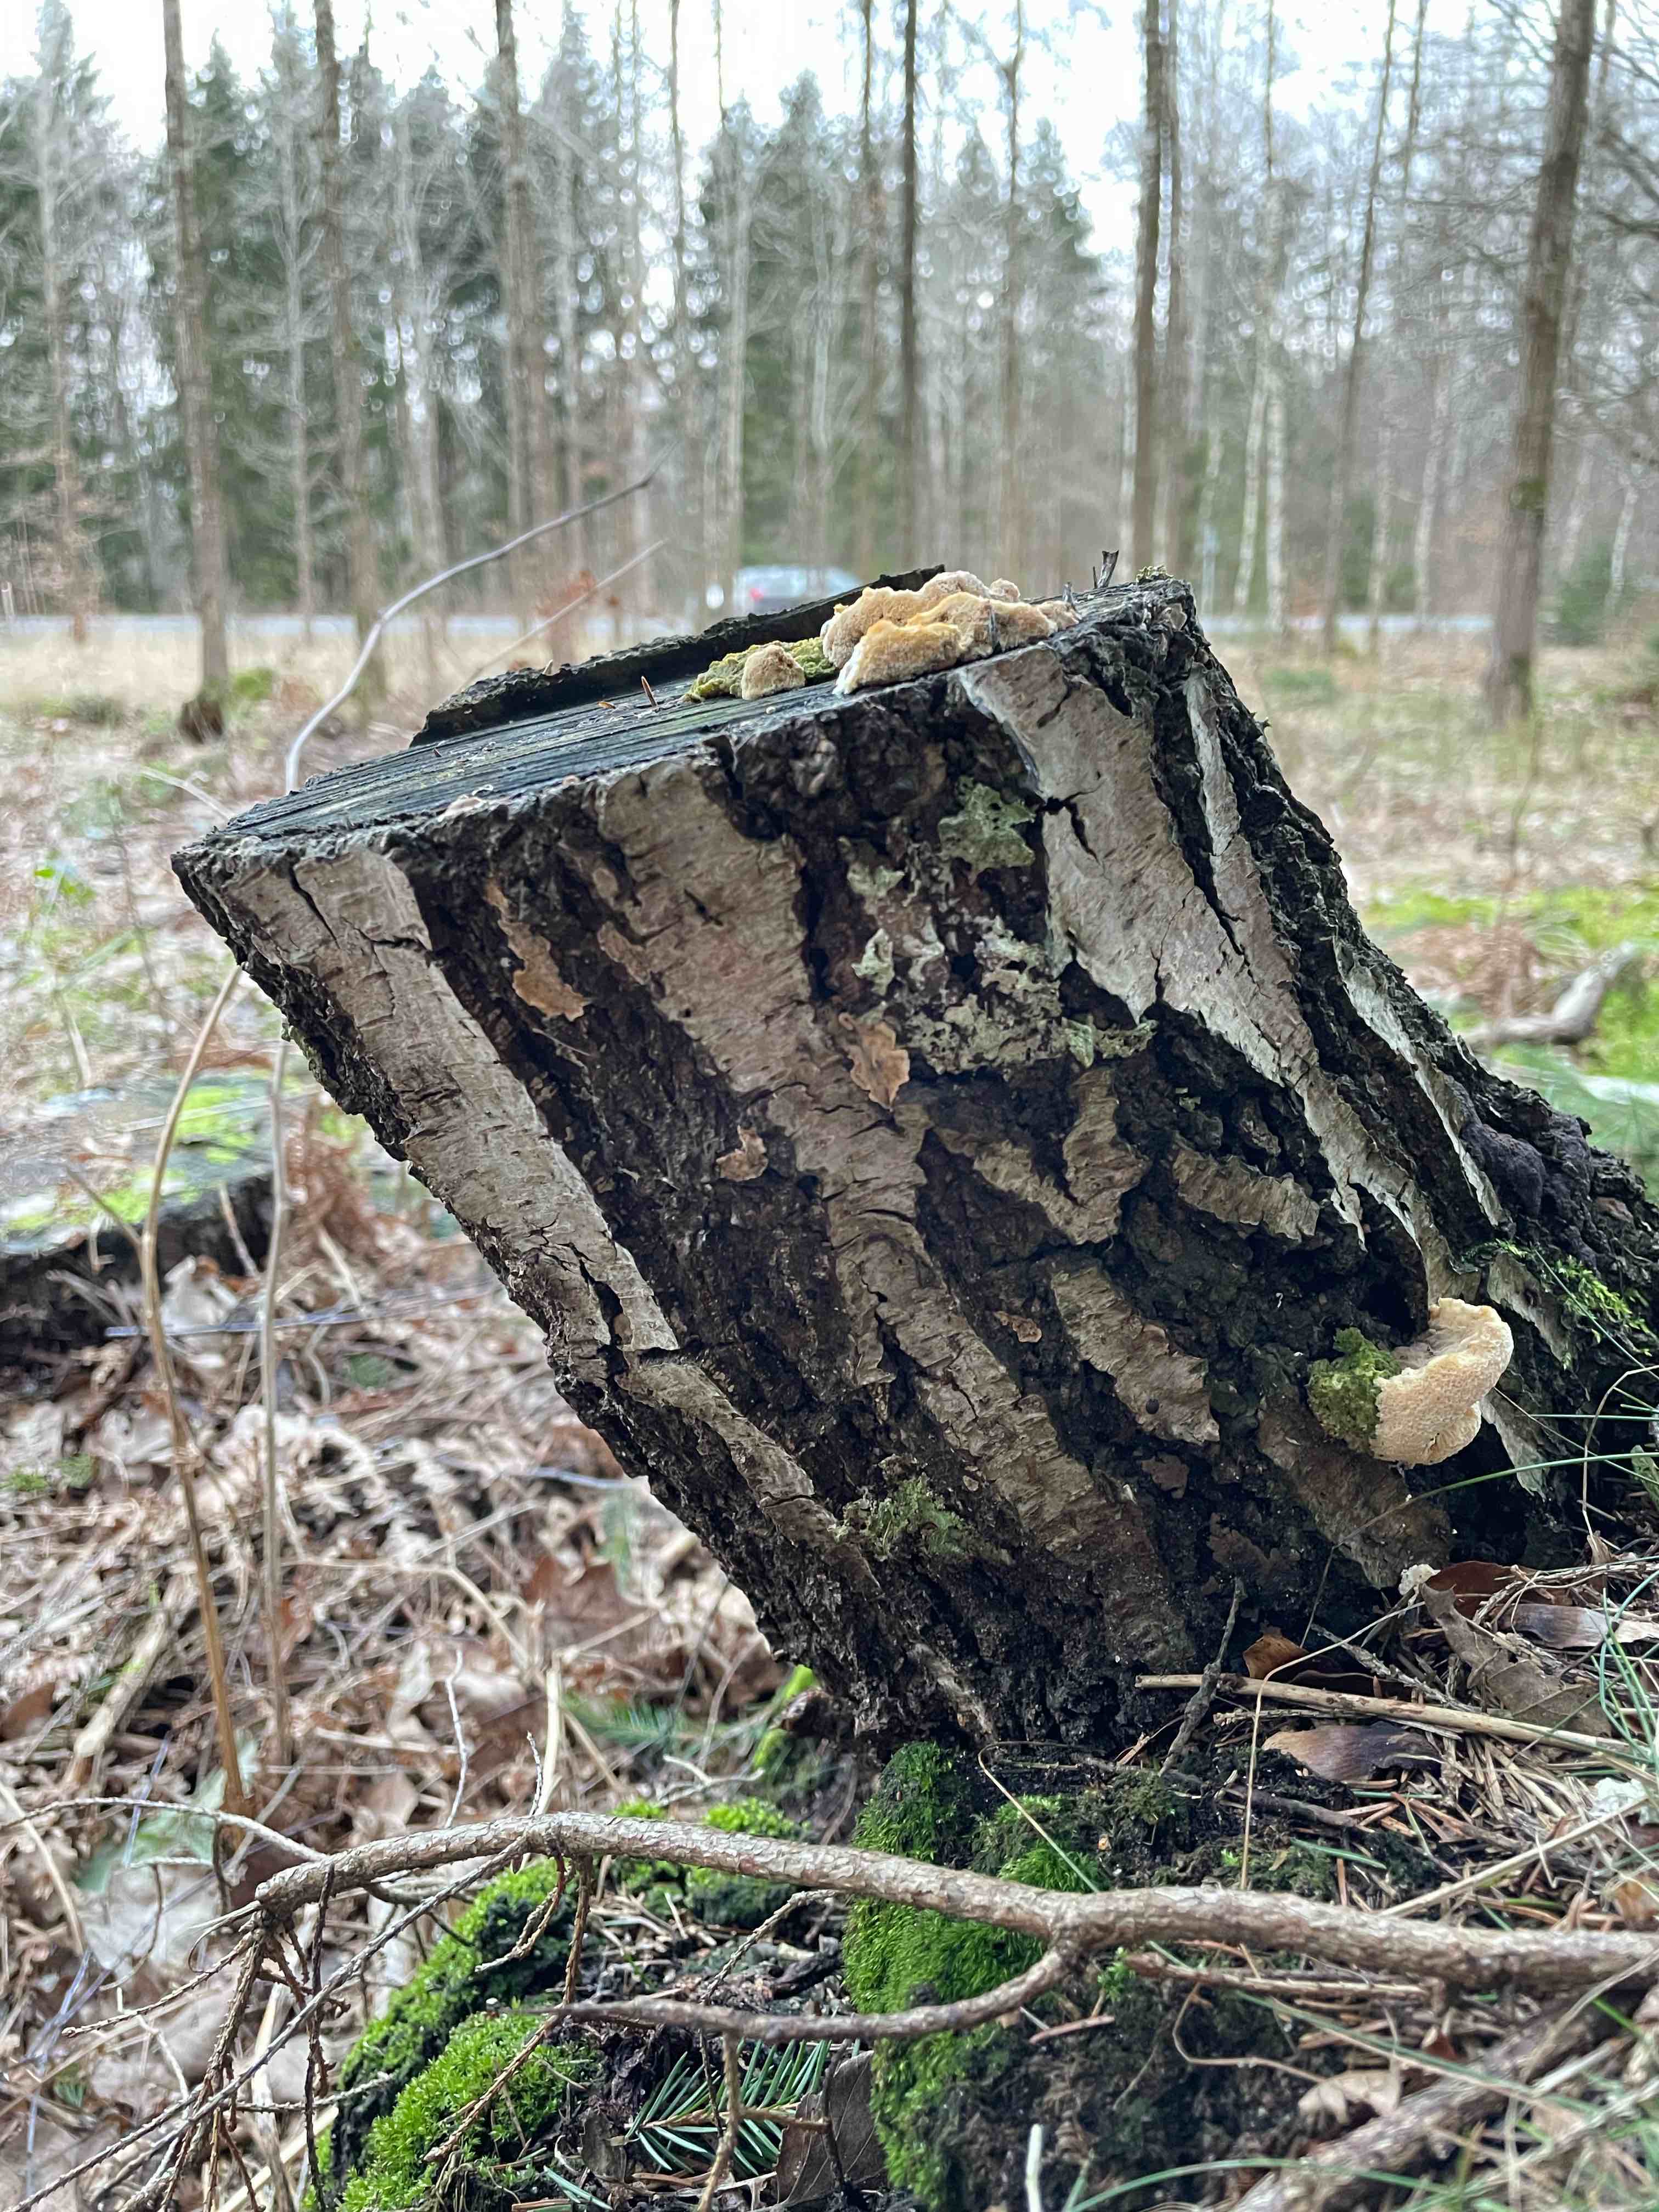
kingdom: Fungi
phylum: Basidiomycota
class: Agaricomycetes
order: Polyporales
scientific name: Polyporales
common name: poresvampordenen
